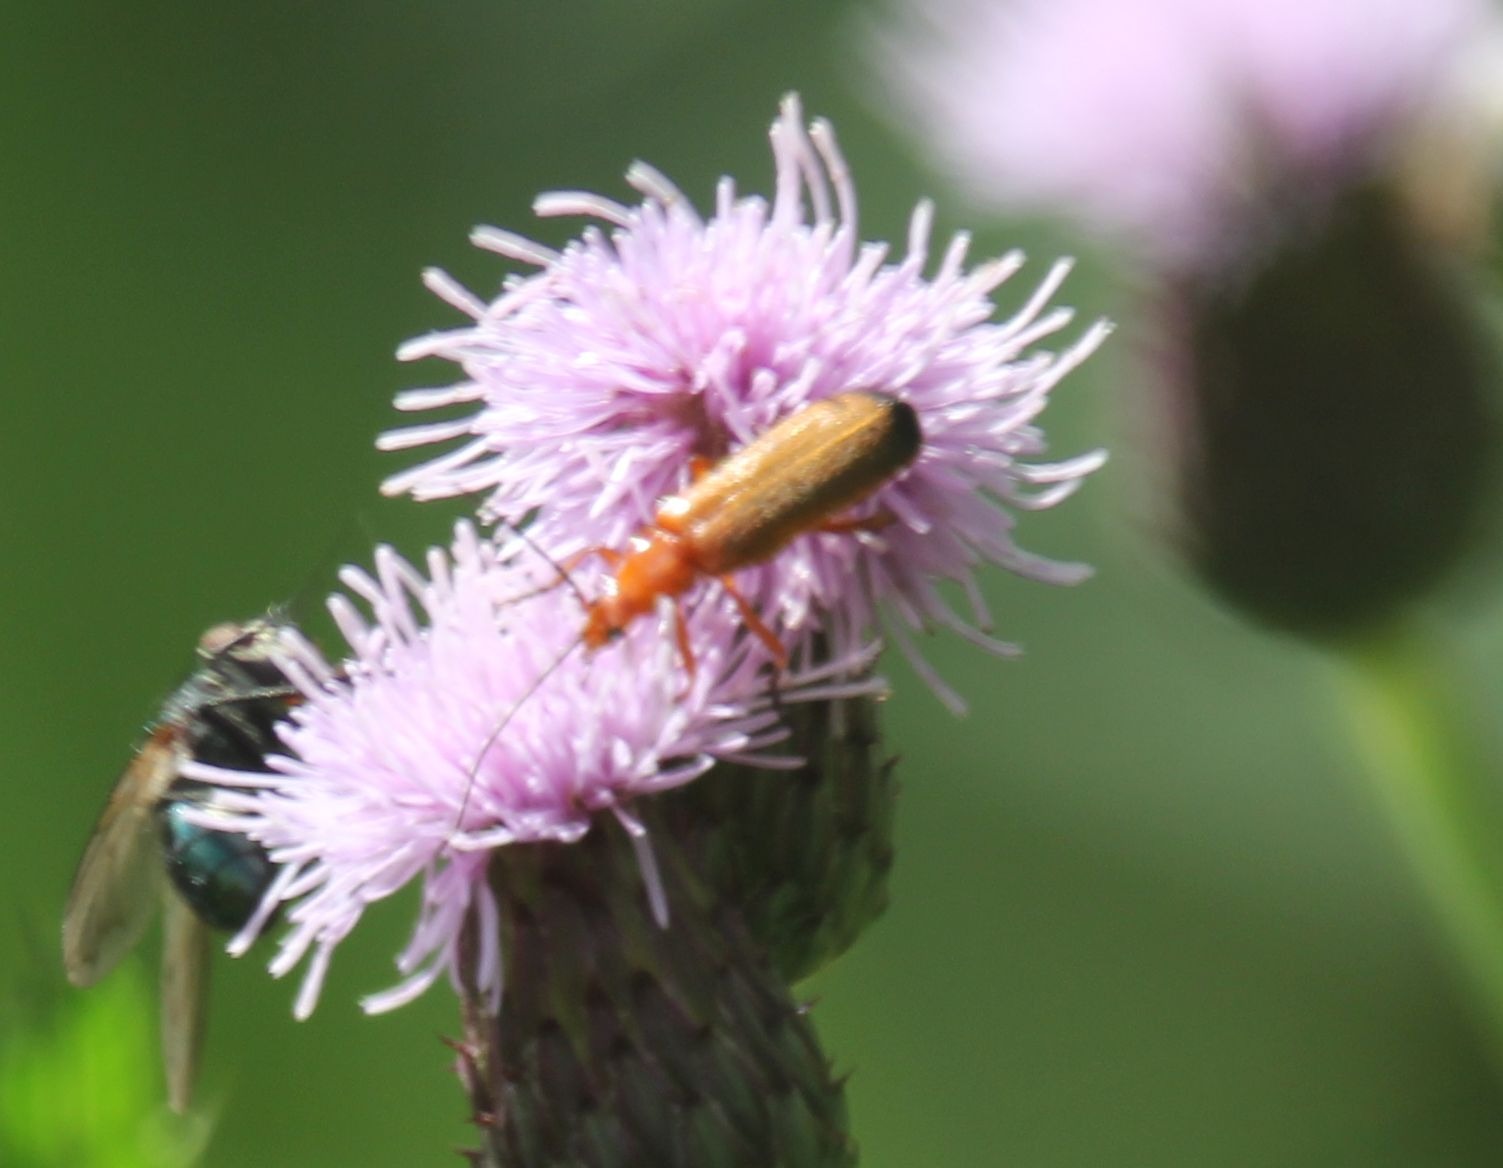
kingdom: Animalia
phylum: Arthropoda
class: Insecta
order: Coleoptera
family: Cantharidae
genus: Rhagonycha
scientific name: Rhagonycha fulva
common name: Præstebille
